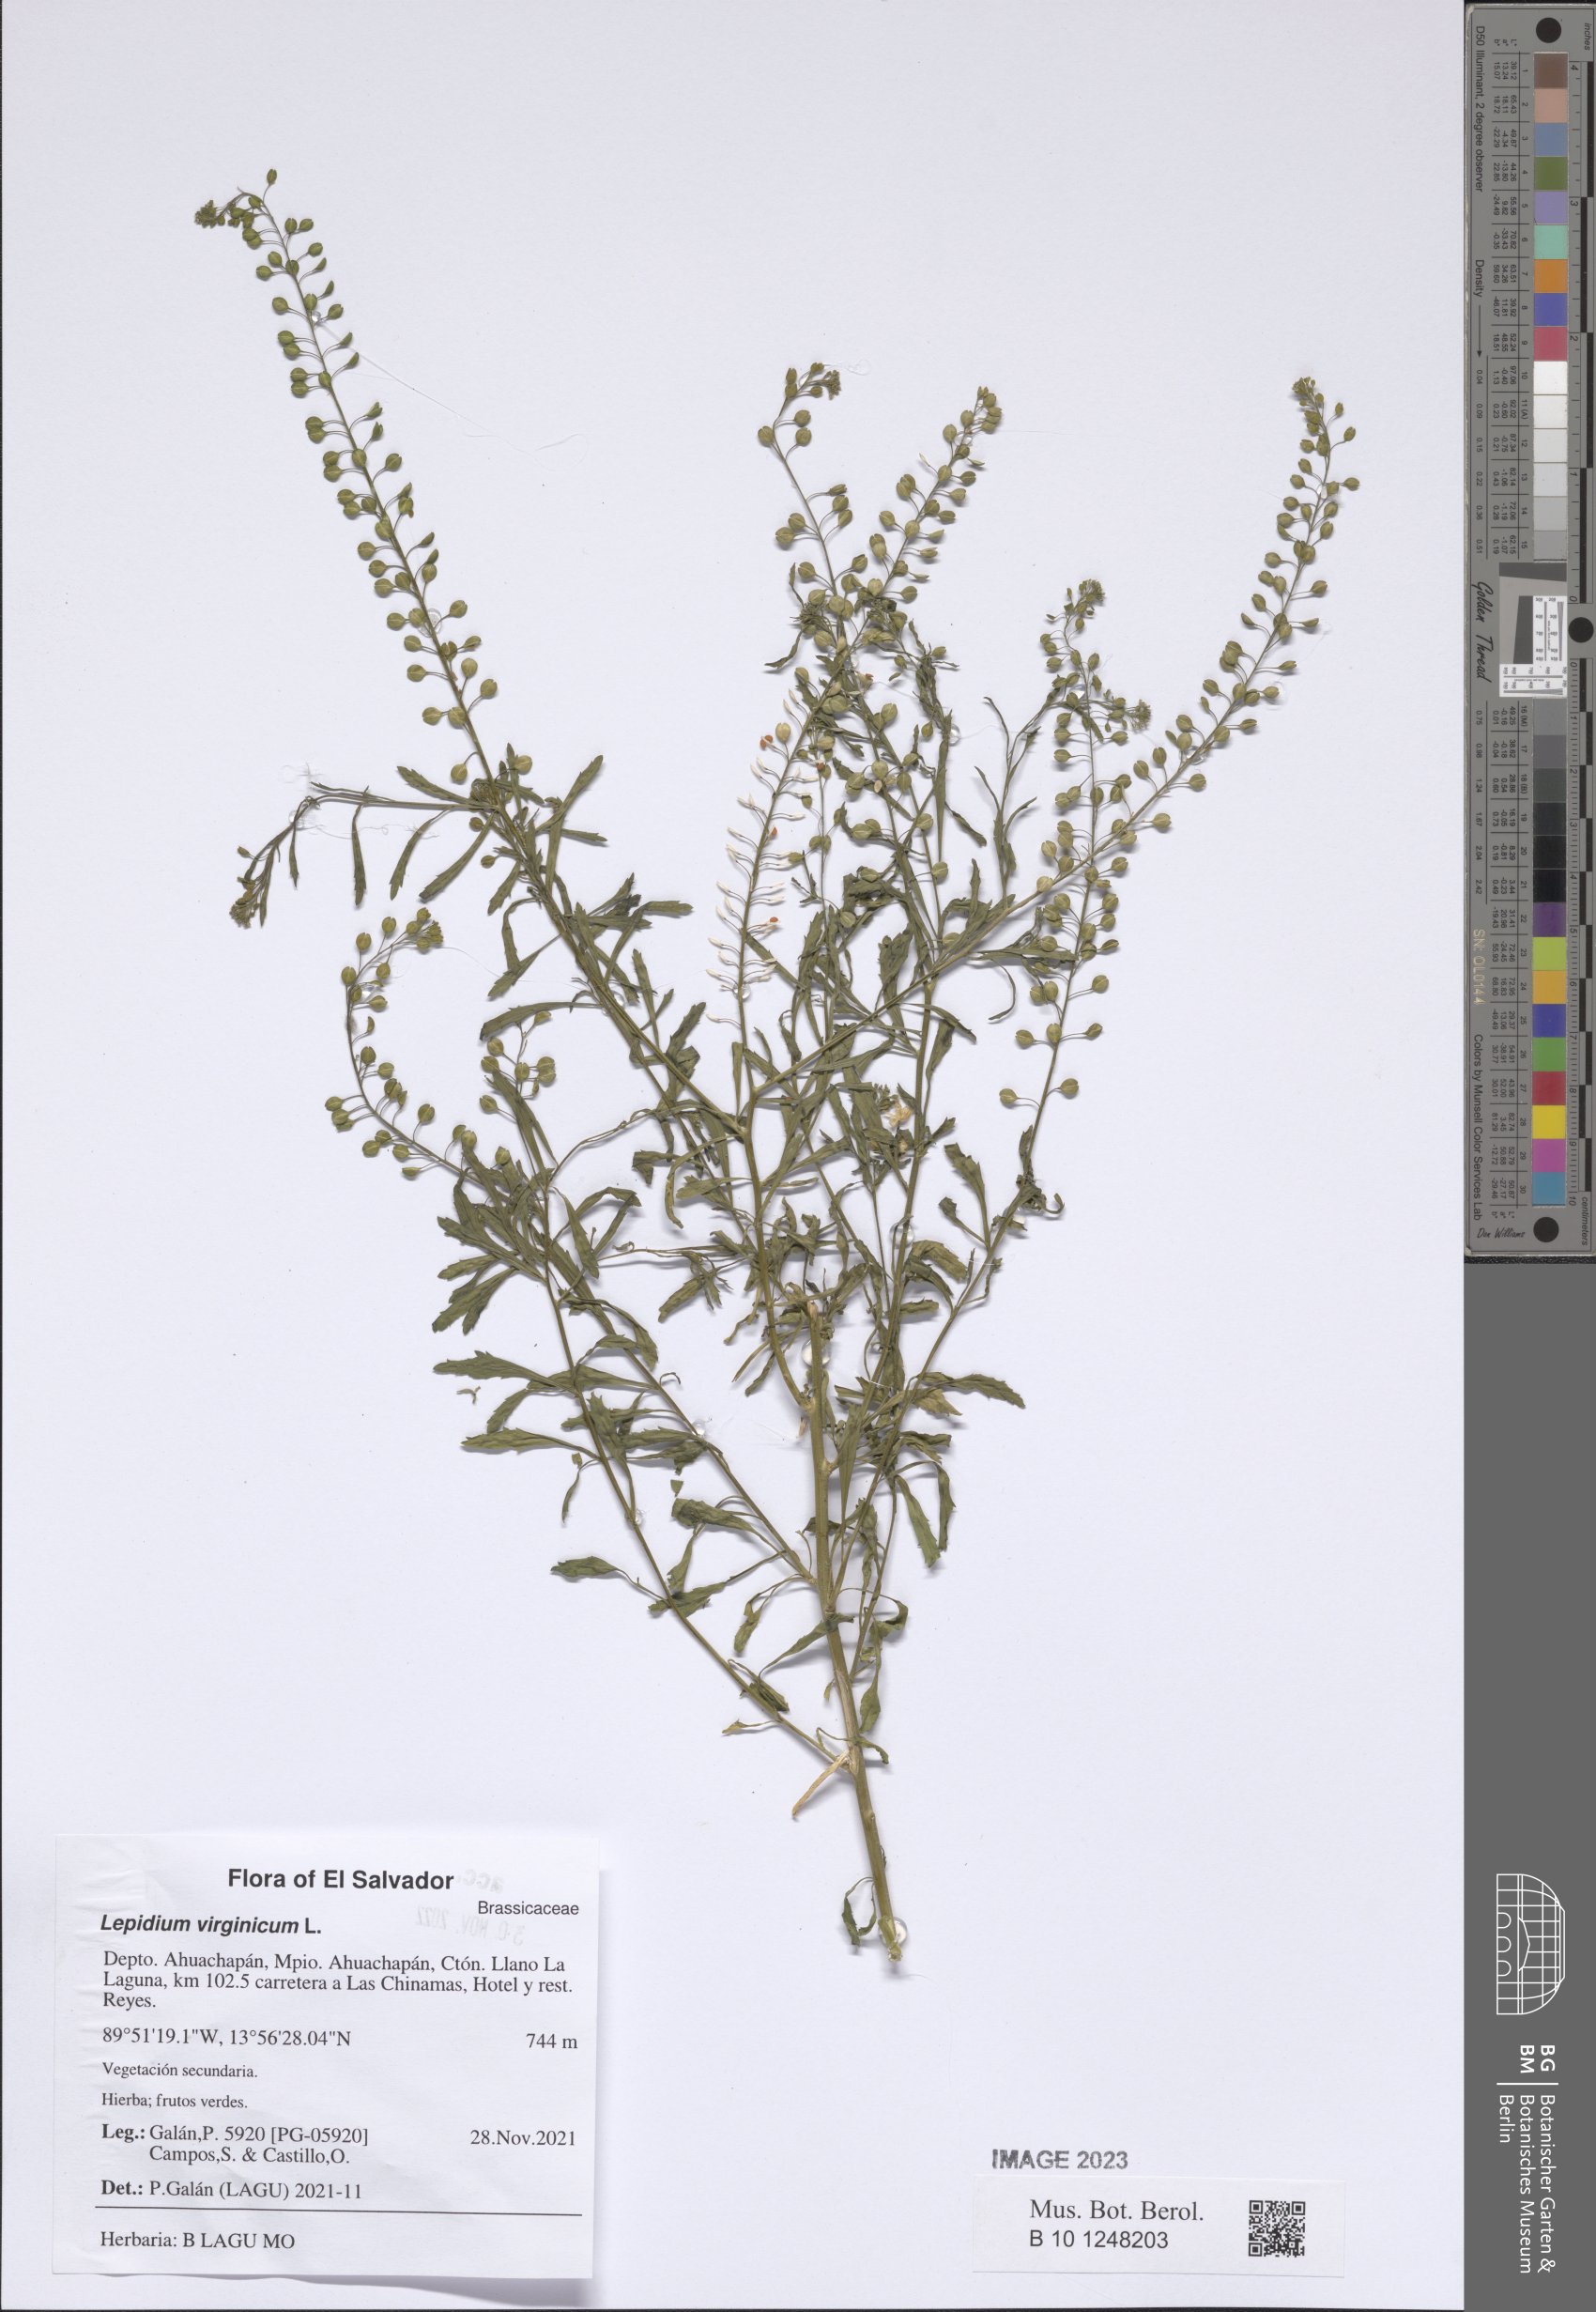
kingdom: Plantae
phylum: Tracheophyta
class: Magnoliopsida
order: Brassicales
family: Brassicaceae
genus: Lepidium
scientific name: Lepidium virginicum
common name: Least pepperwort
